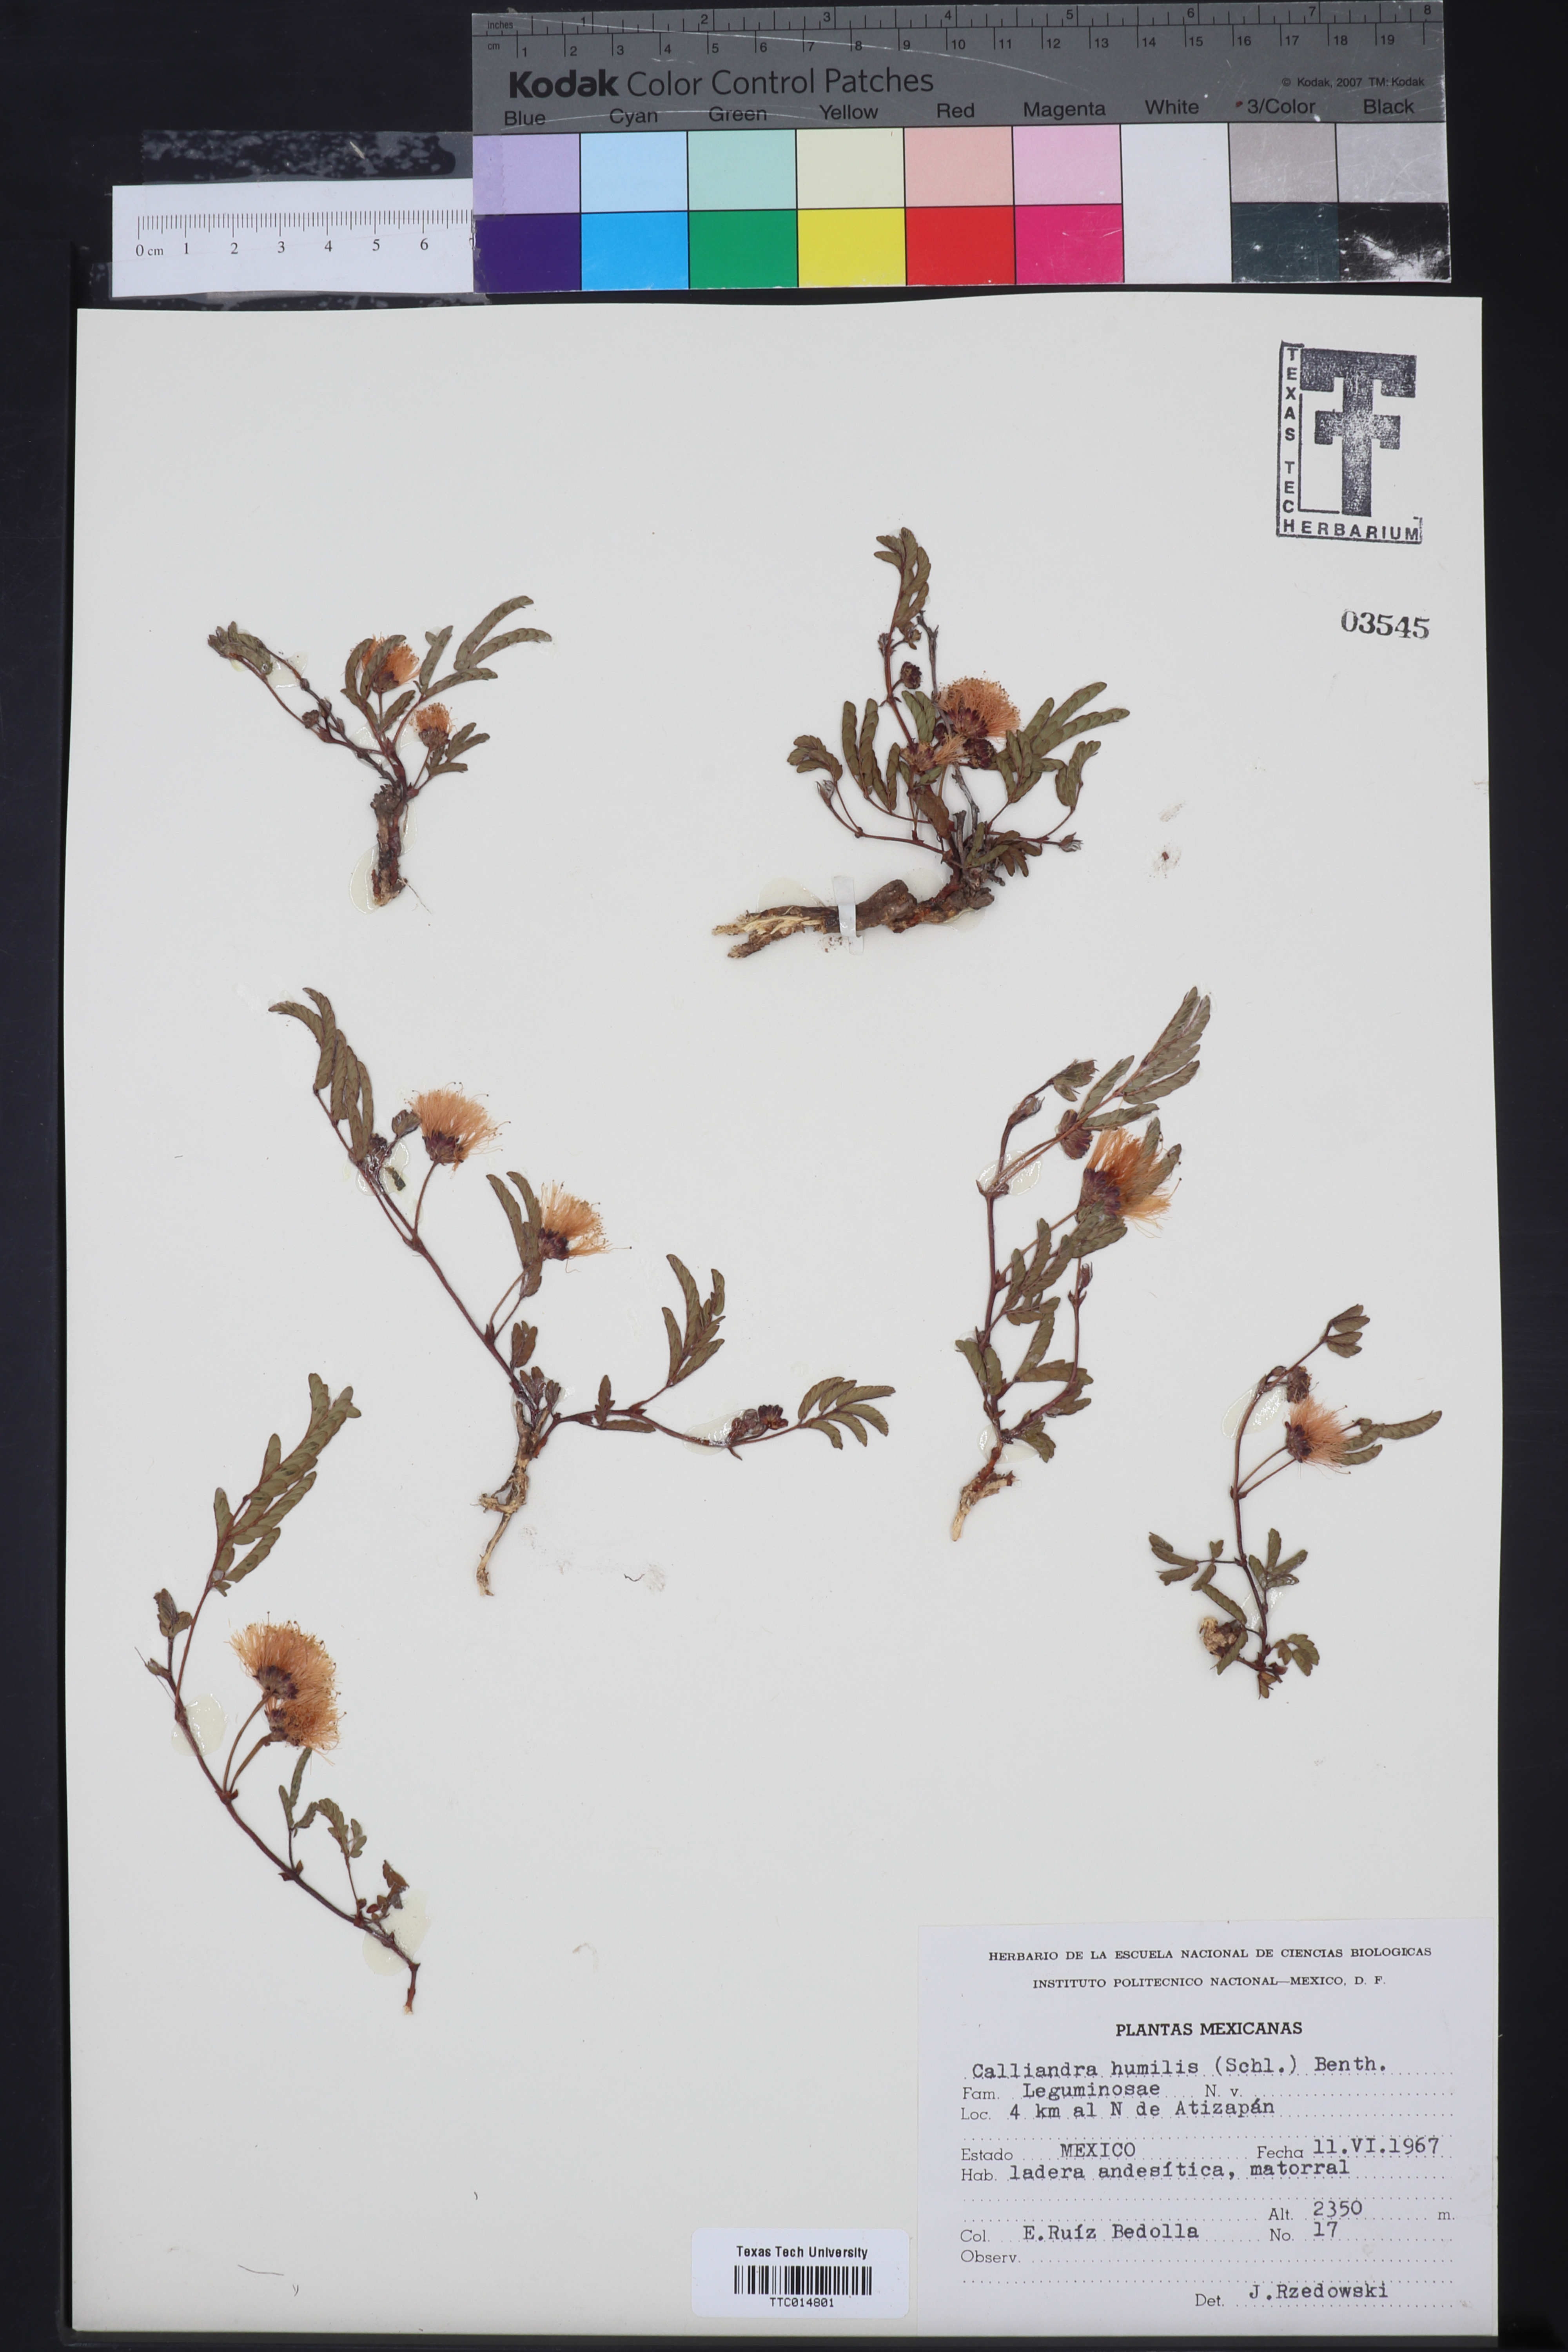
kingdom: Plantae
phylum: Tracheophyta
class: Magnoliopsida
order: Fabales
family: Fabaceae
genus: Calliandra
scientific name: Calliandra houstoniana
